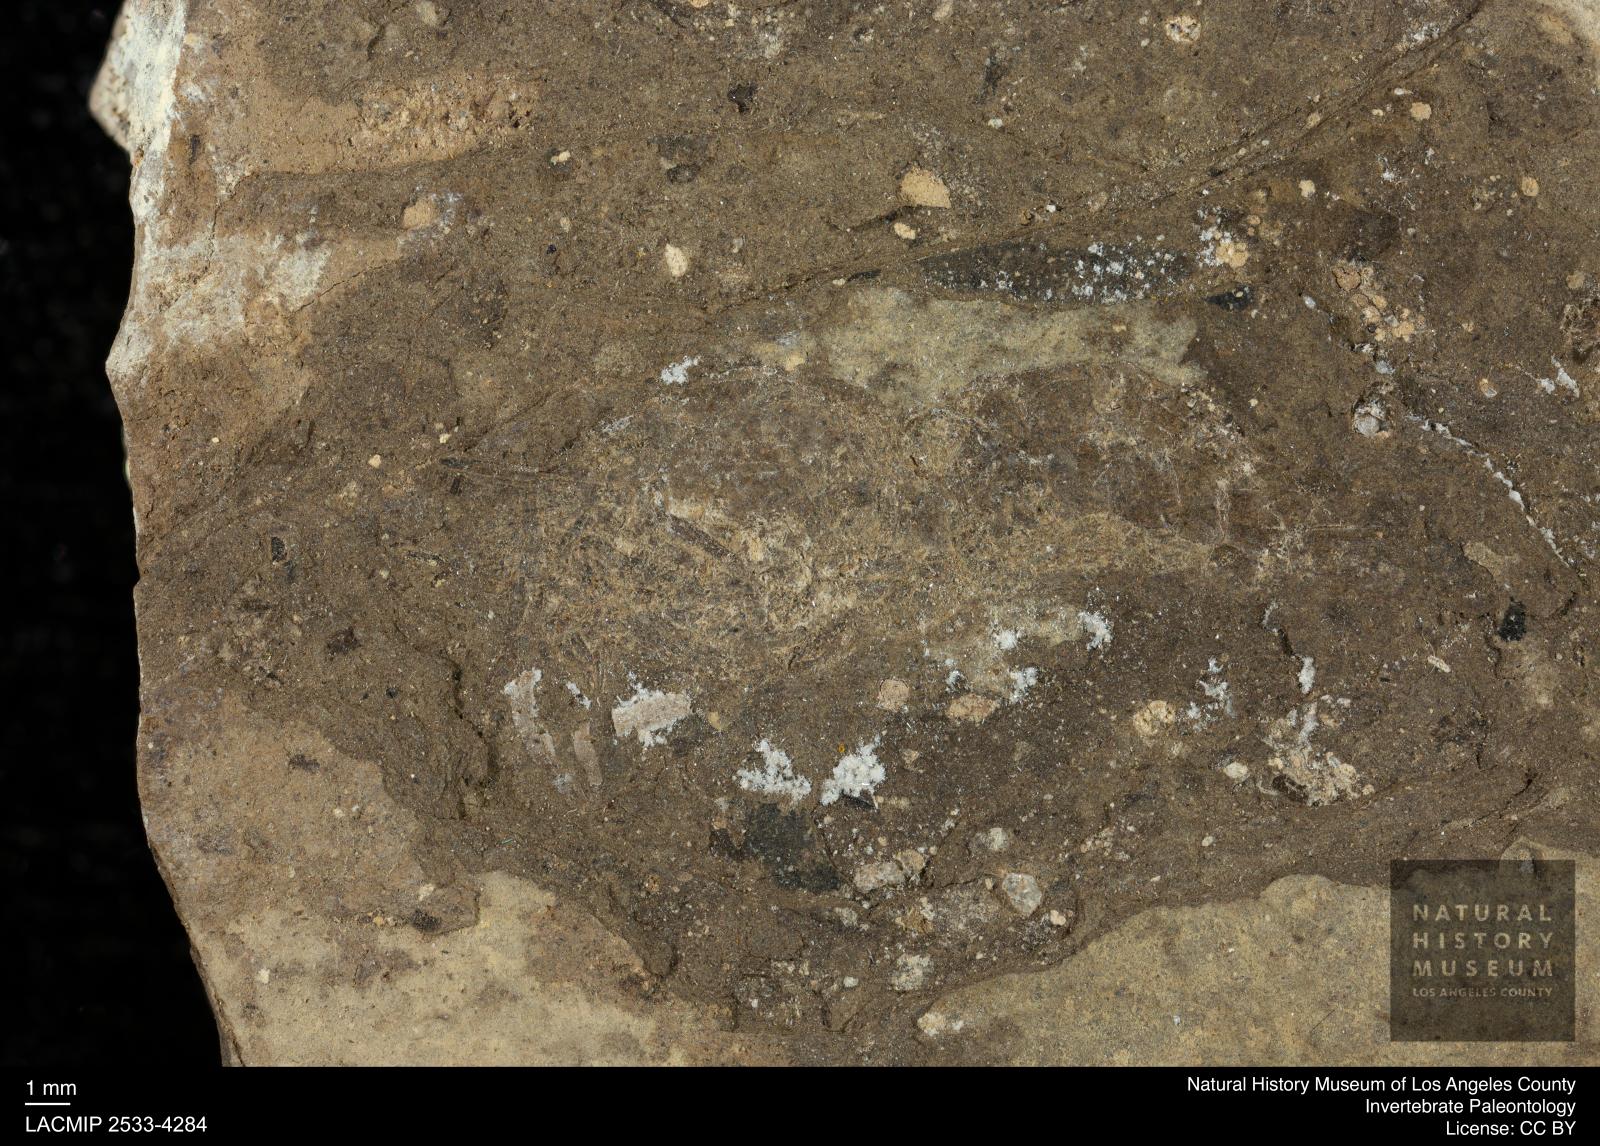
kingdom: Animalia
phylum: Arthropoda
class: Malacostraca
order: Decapoda
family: Palaemonidae
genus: Micropsalis
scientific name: Micropsalis papyracea
